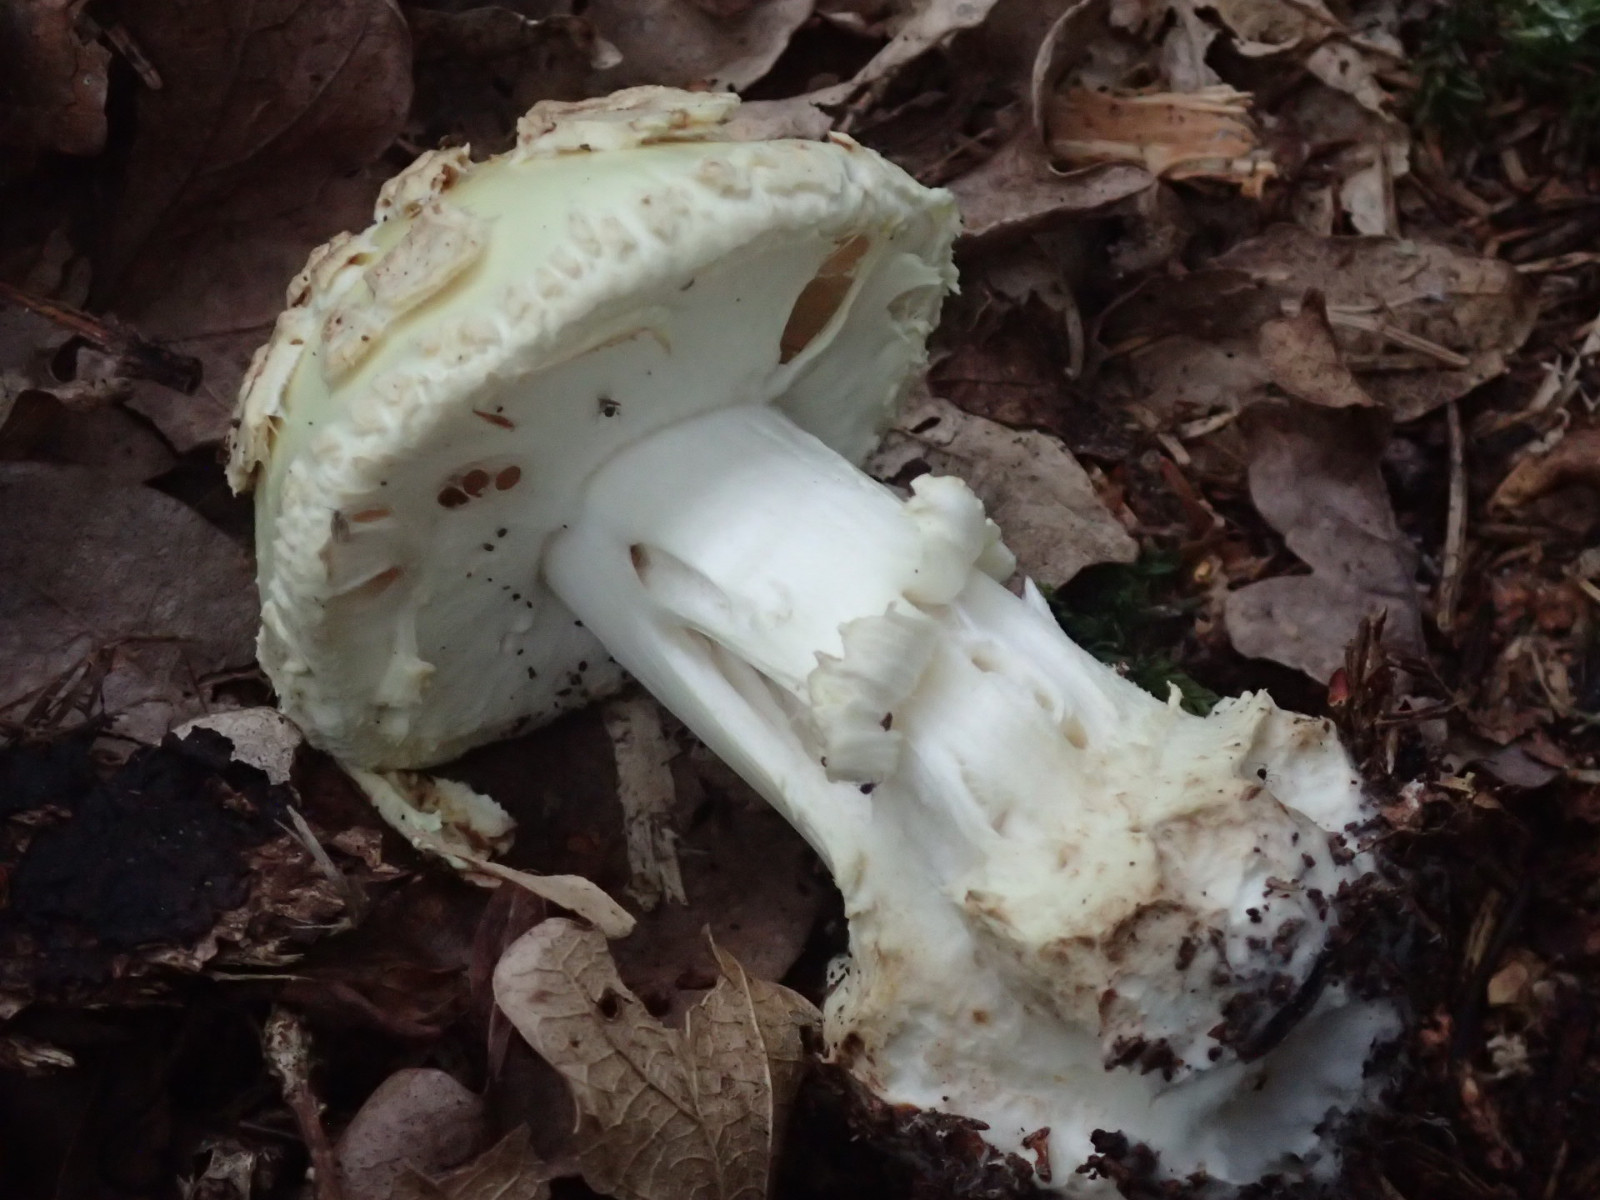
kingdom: Fungi
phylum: Basidiomycota
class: Agaricomycetes
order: Agaricales
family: Amanitaceae
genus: Amanita
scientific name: Amanita citrina
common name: kugleknoldet fluesvamp
